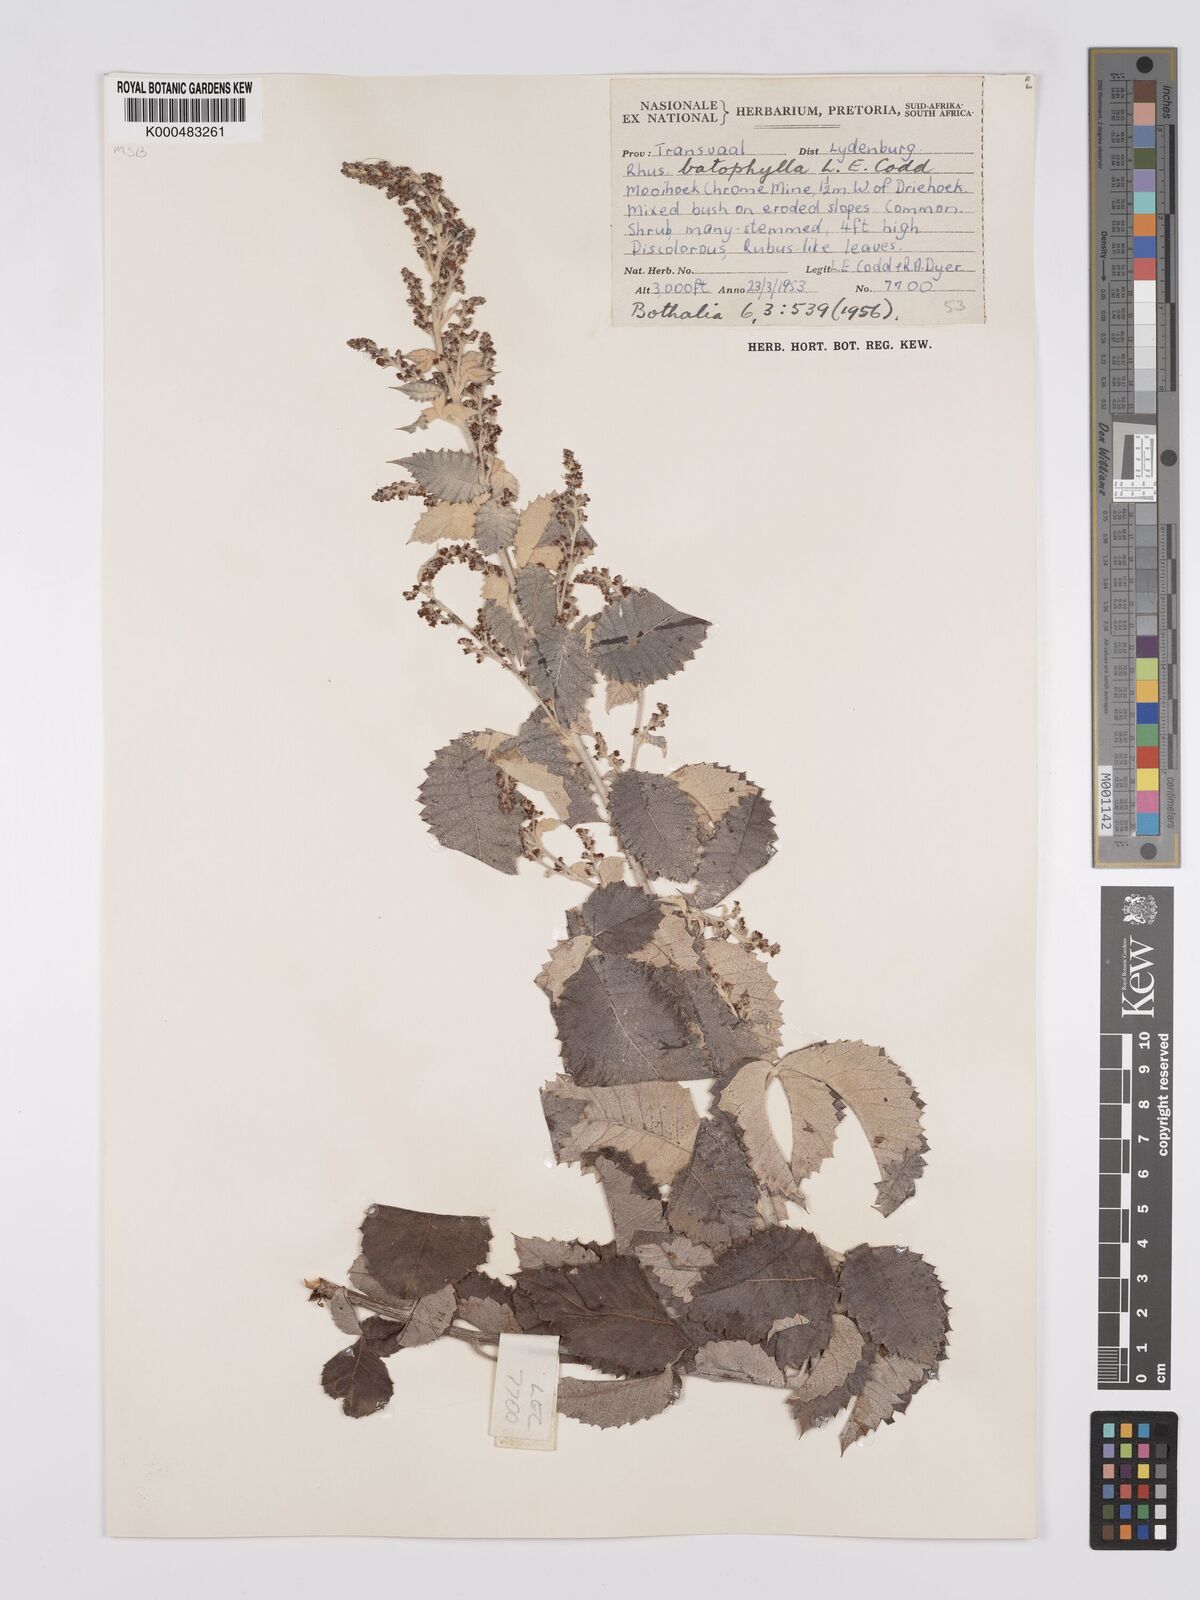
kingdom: Plantae
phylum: Tracheophyta
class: Magnoliopsida
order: Sapindales
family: Anacardiaceae
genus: Searsia
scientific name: Searsia batophylla
